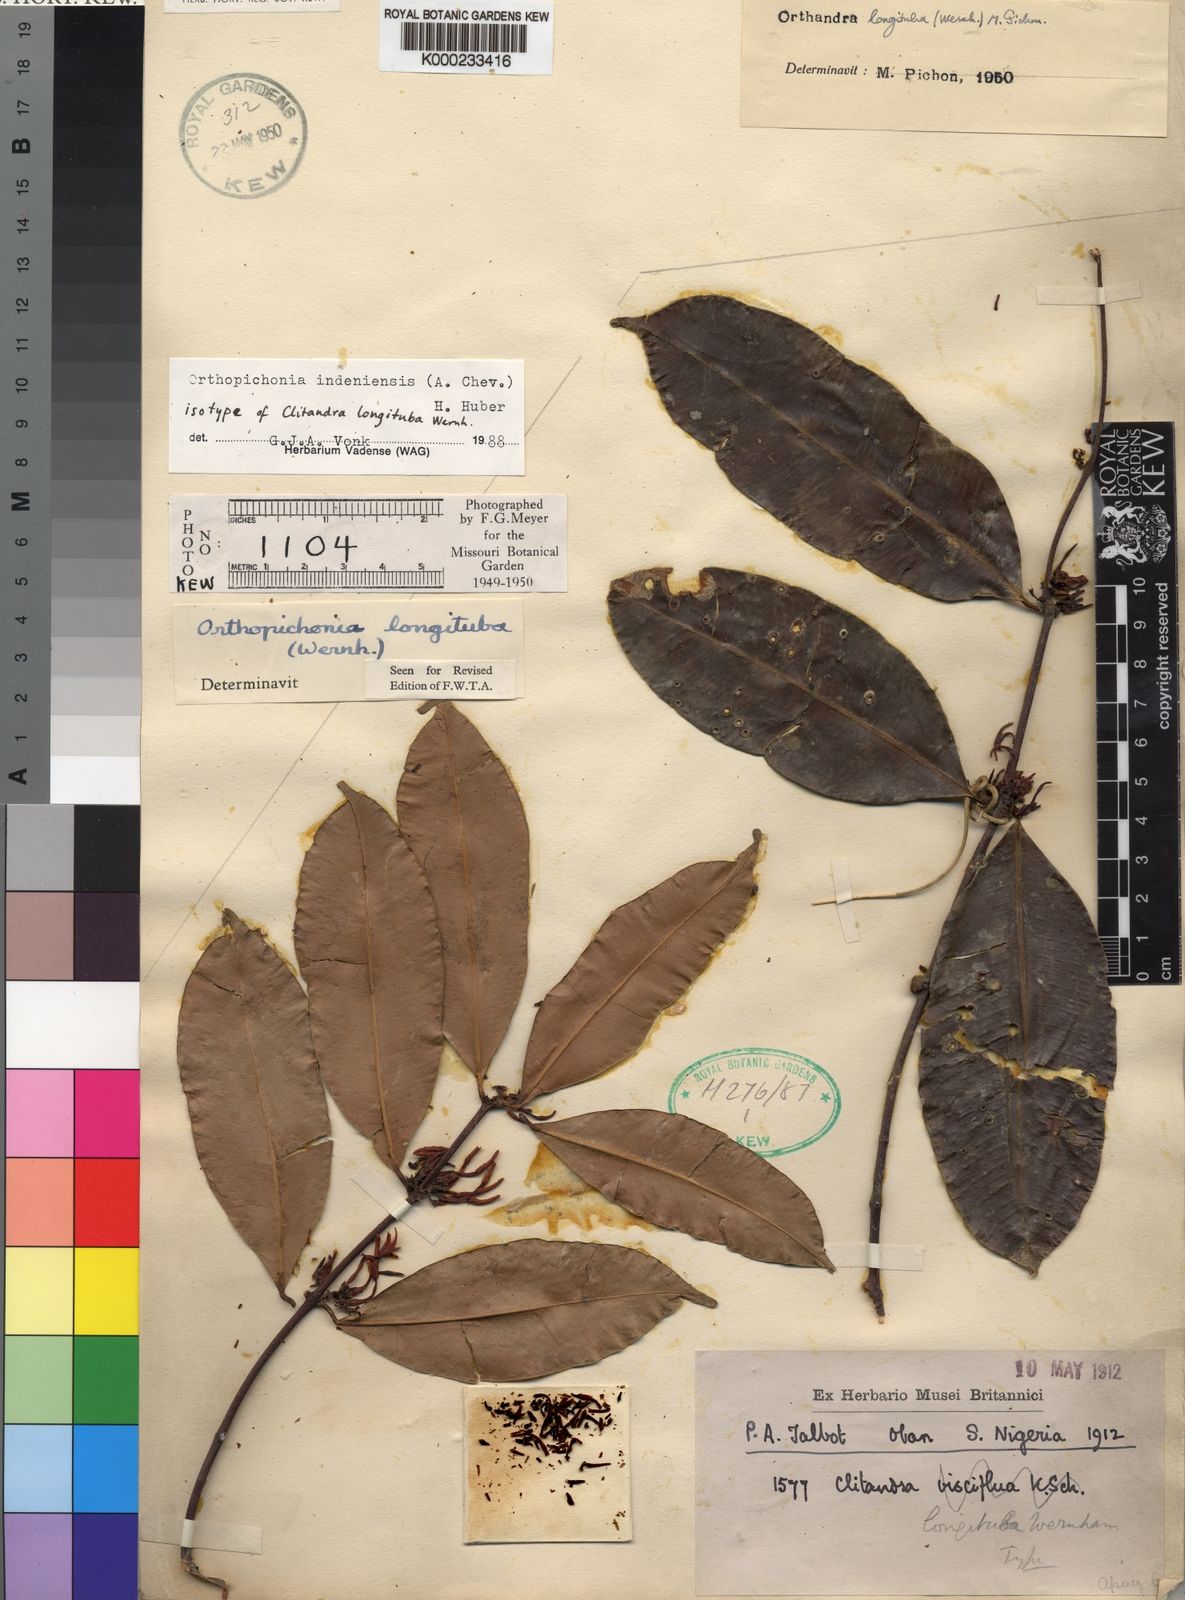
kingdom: Plantae
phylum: Tracheophyta
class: Magnoliopsida
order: Gentianales
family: Apocynaceae
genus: Orthopichonia
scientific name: Orthopichonia indeniensis
